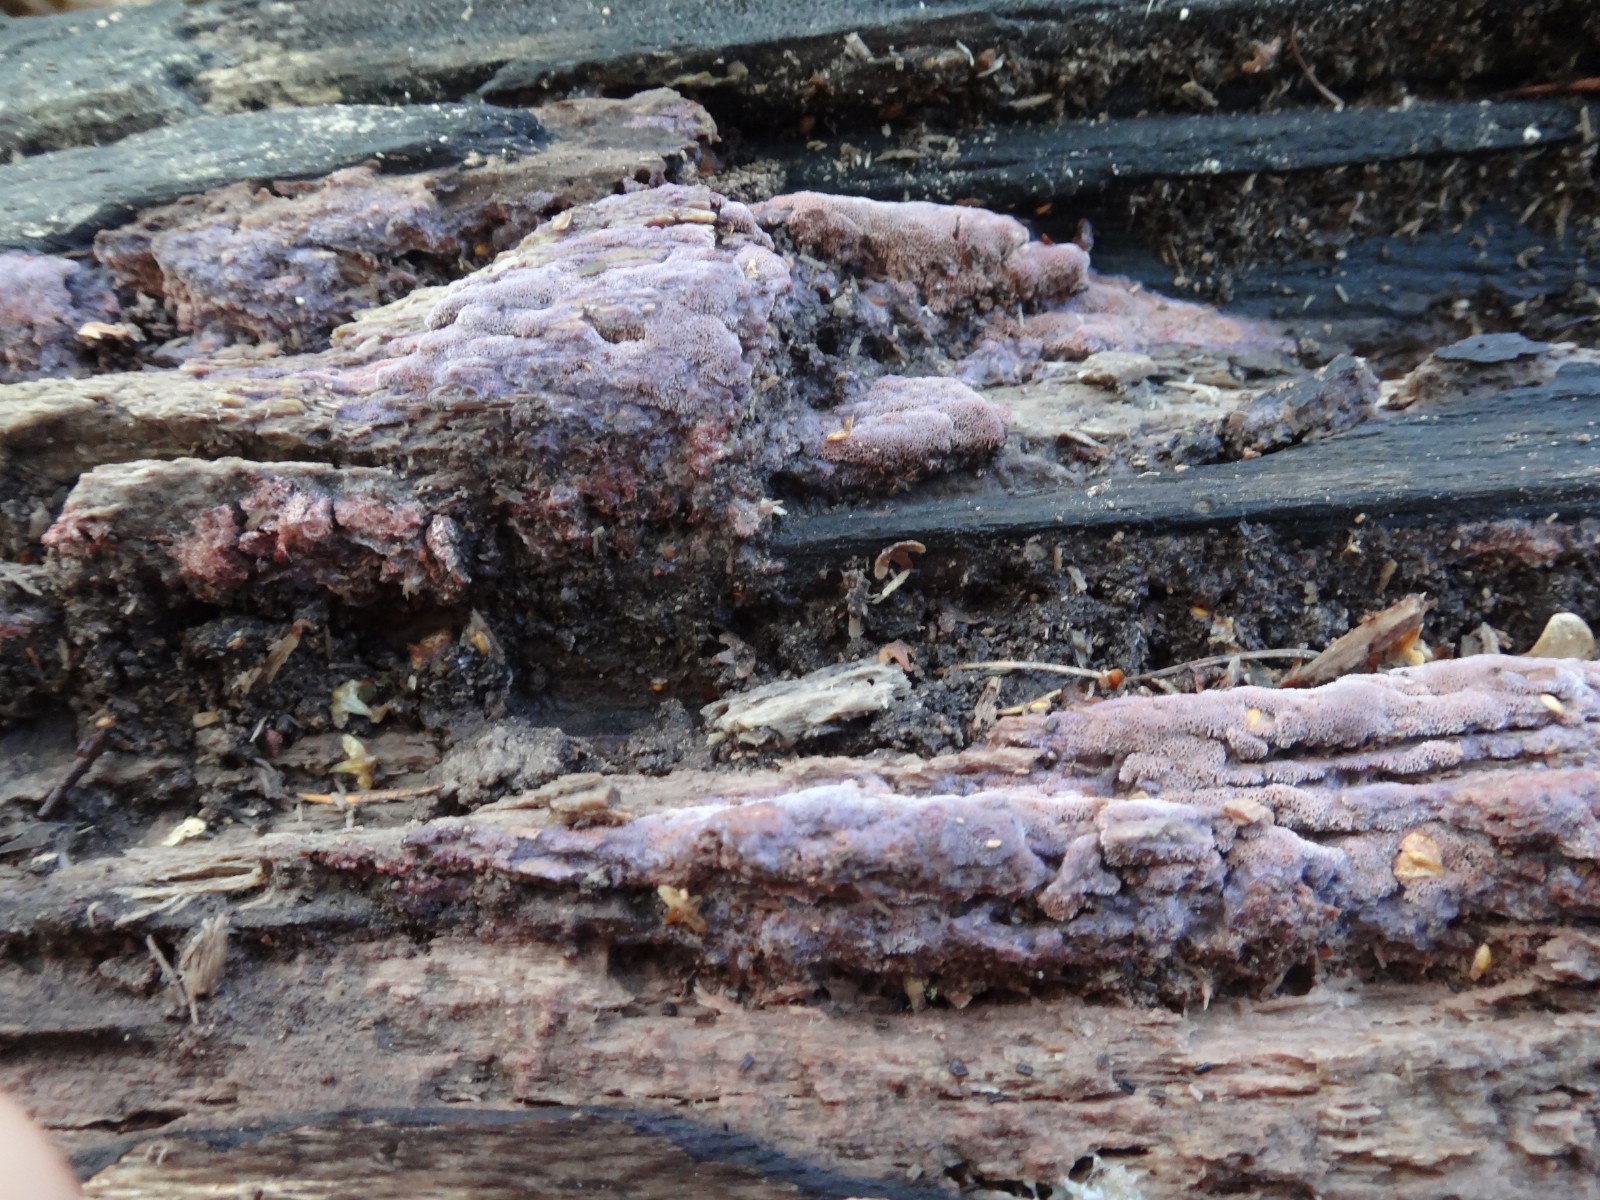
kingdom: Fungi
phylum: Basidiomycota
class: Agaricomycetes
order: Polyporales
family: Irpicaceae
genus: Ceriporia
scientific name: Ceriporia excelsa
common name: lilla voksporesvamp
